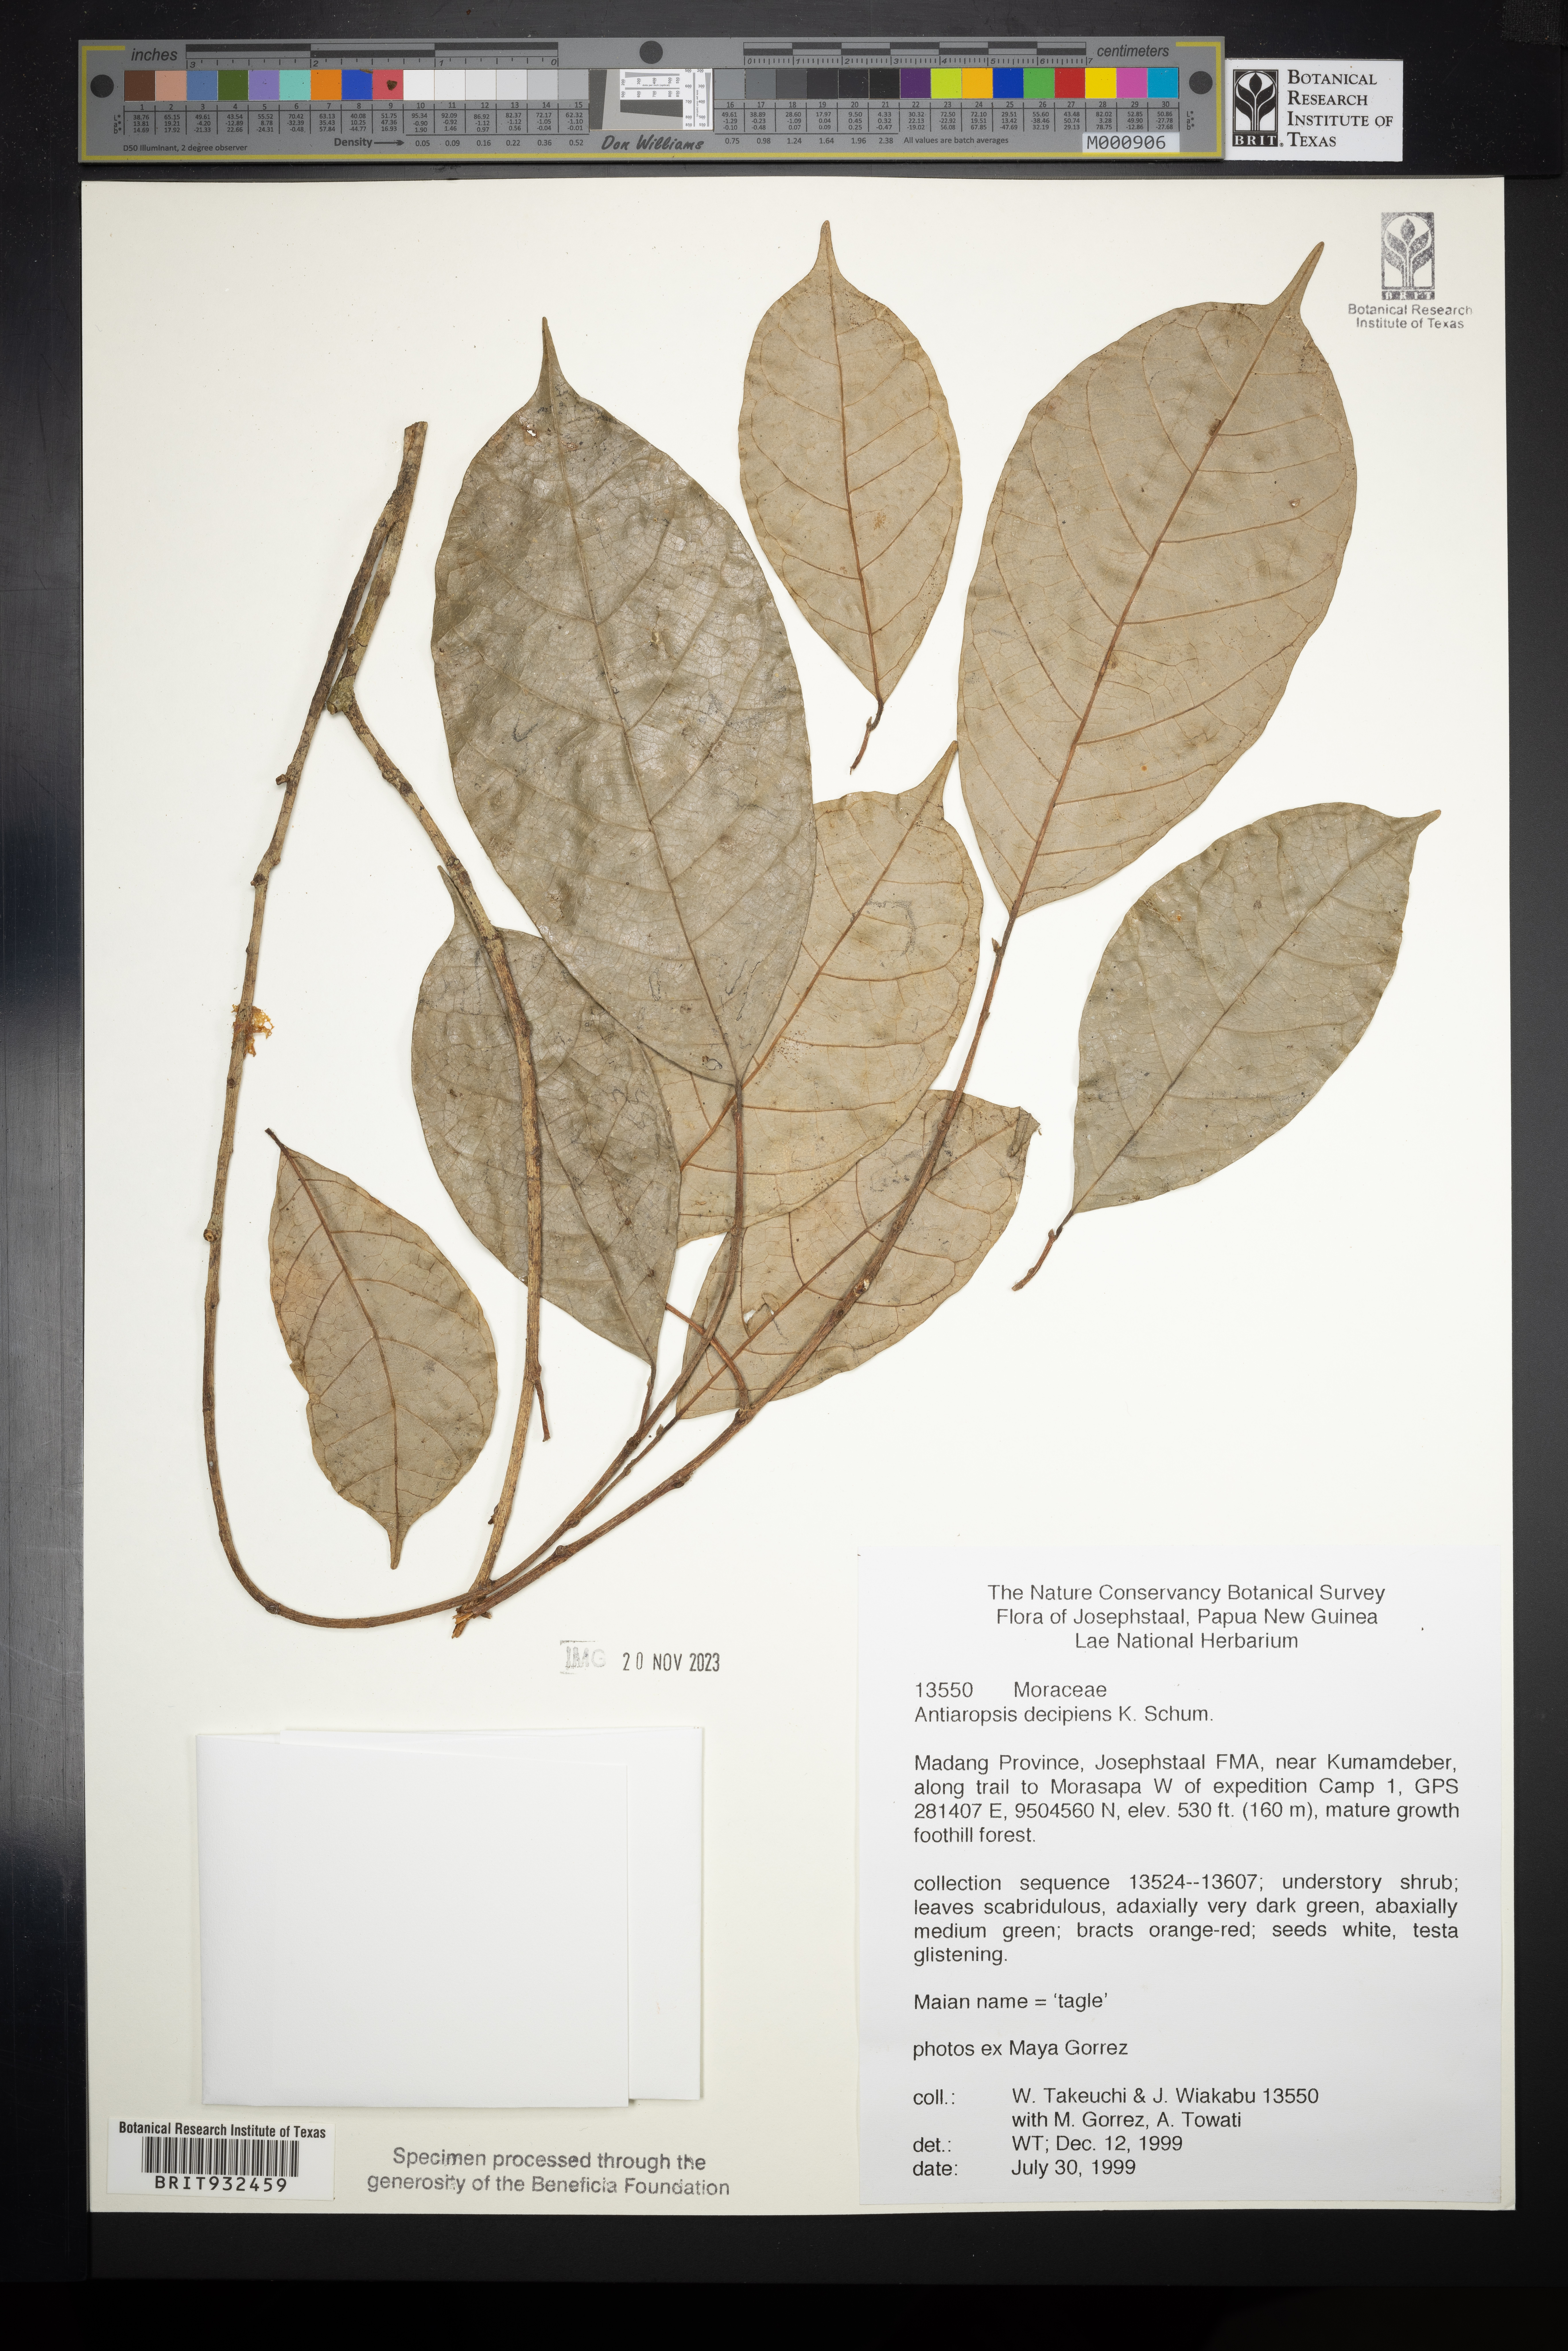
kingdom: Plantae
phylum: Tracheophyta
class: Magnoliopsida
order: Rosales
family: Moraceae
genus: Antiaropsis
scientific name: Antiaropsis
